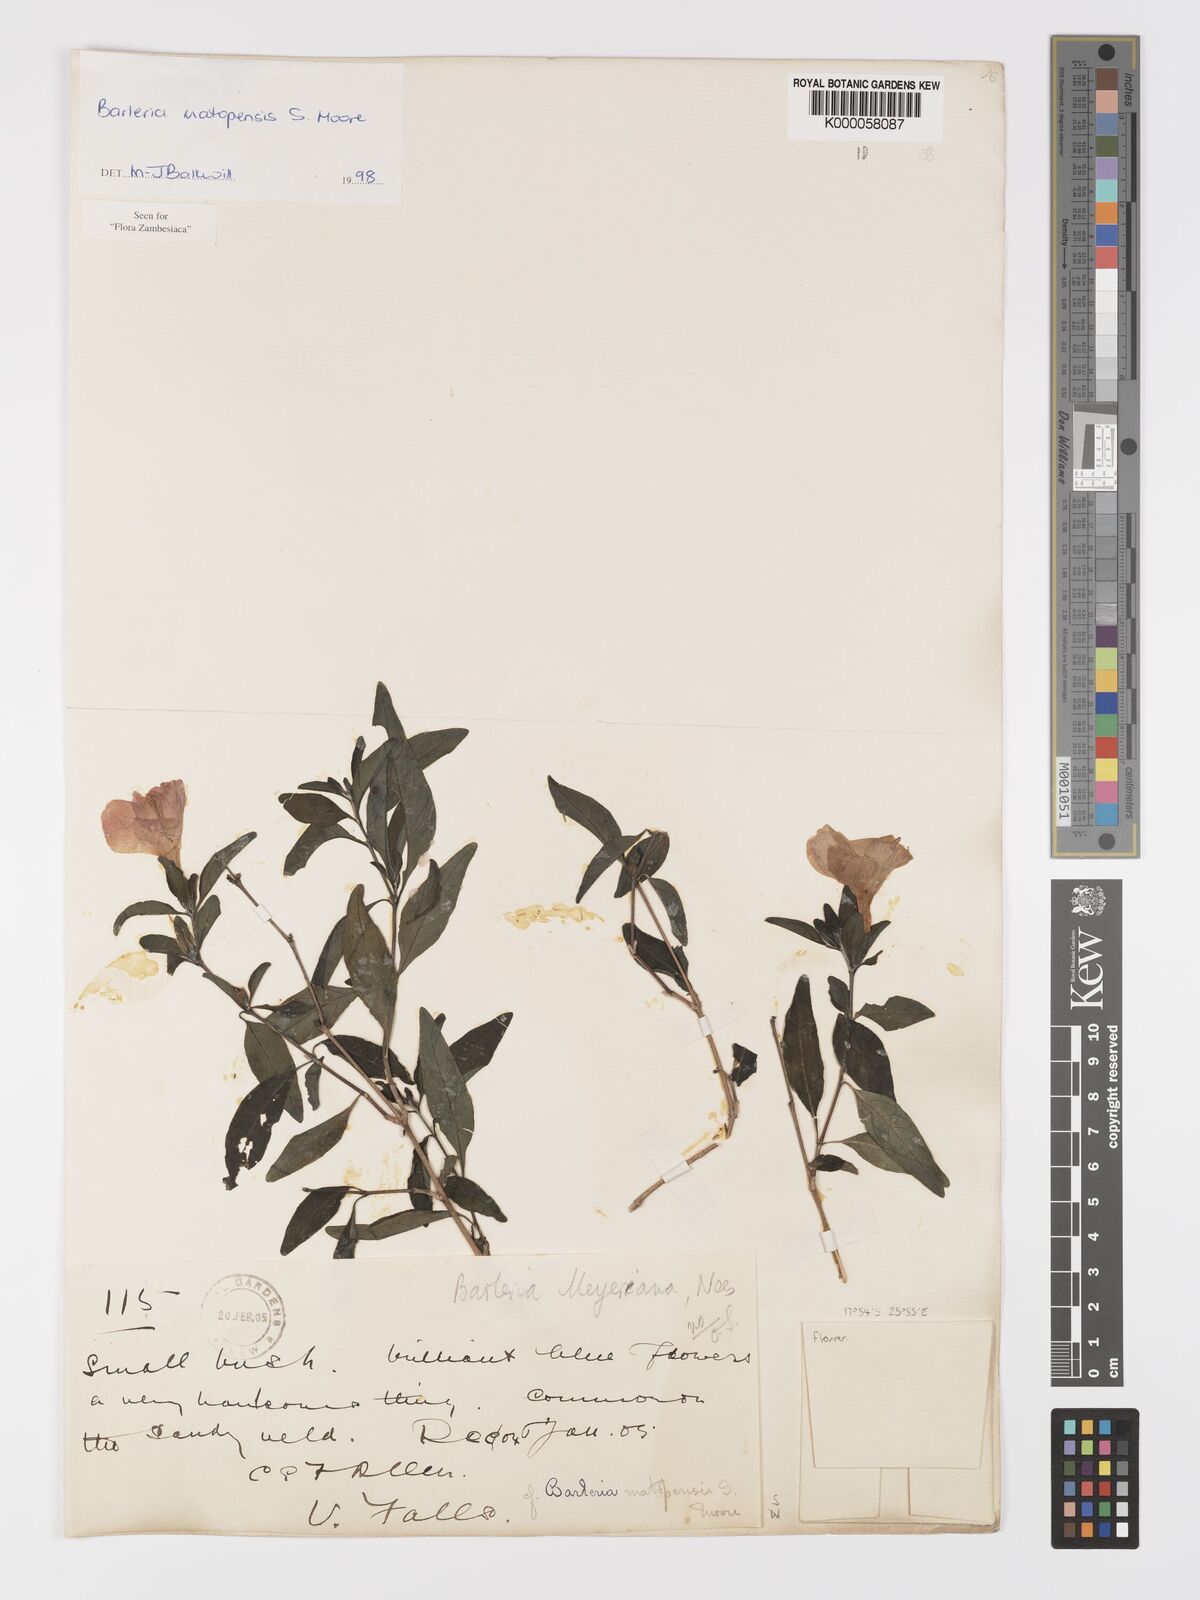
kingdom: Plantae
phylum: Tracheophyta
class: Magnoliopsida
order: Lamiales
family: Acanthaceae
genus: Barleria
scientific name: Barleria matopensis
